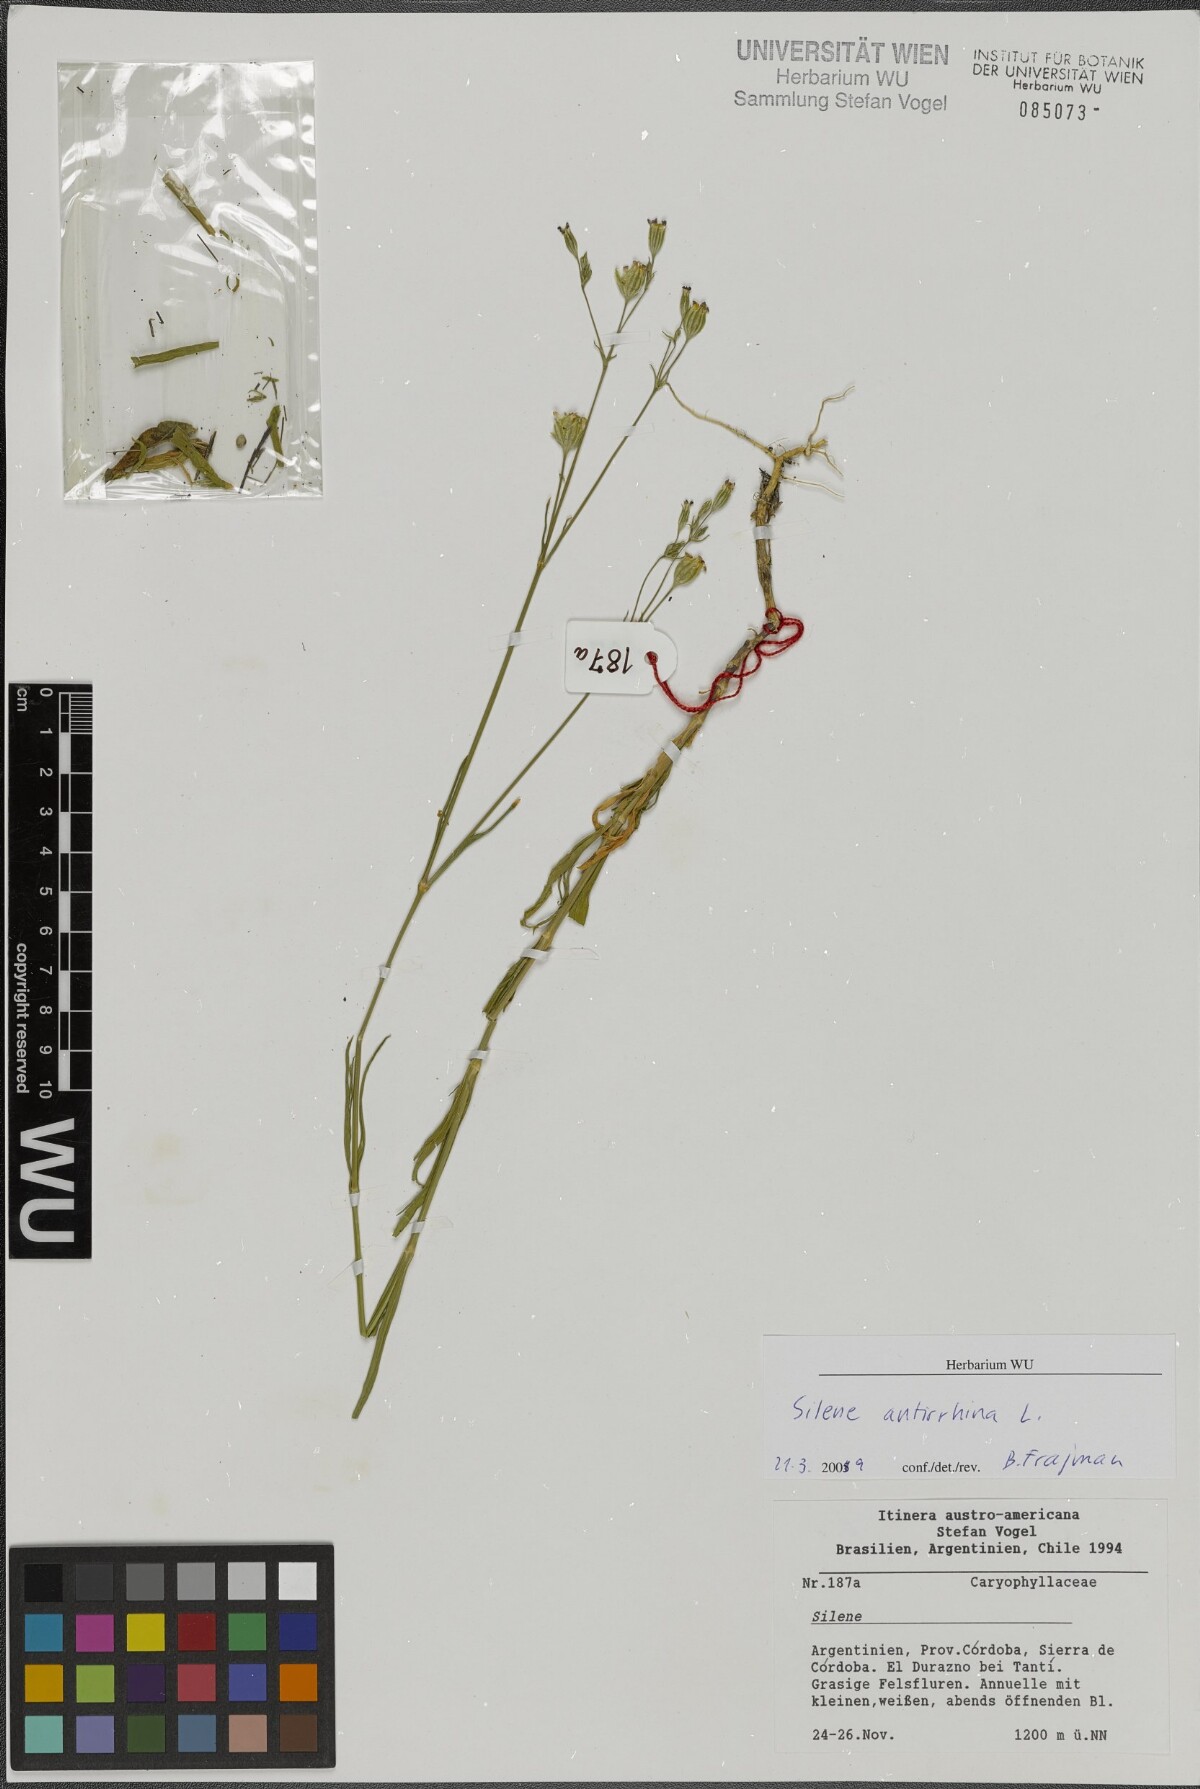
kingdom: Plantae
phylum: Tracheophyta
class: Magnoliopsida
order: Caryophyllales
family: Caryophyllaceae
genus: Silene
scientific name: Silene argentina
